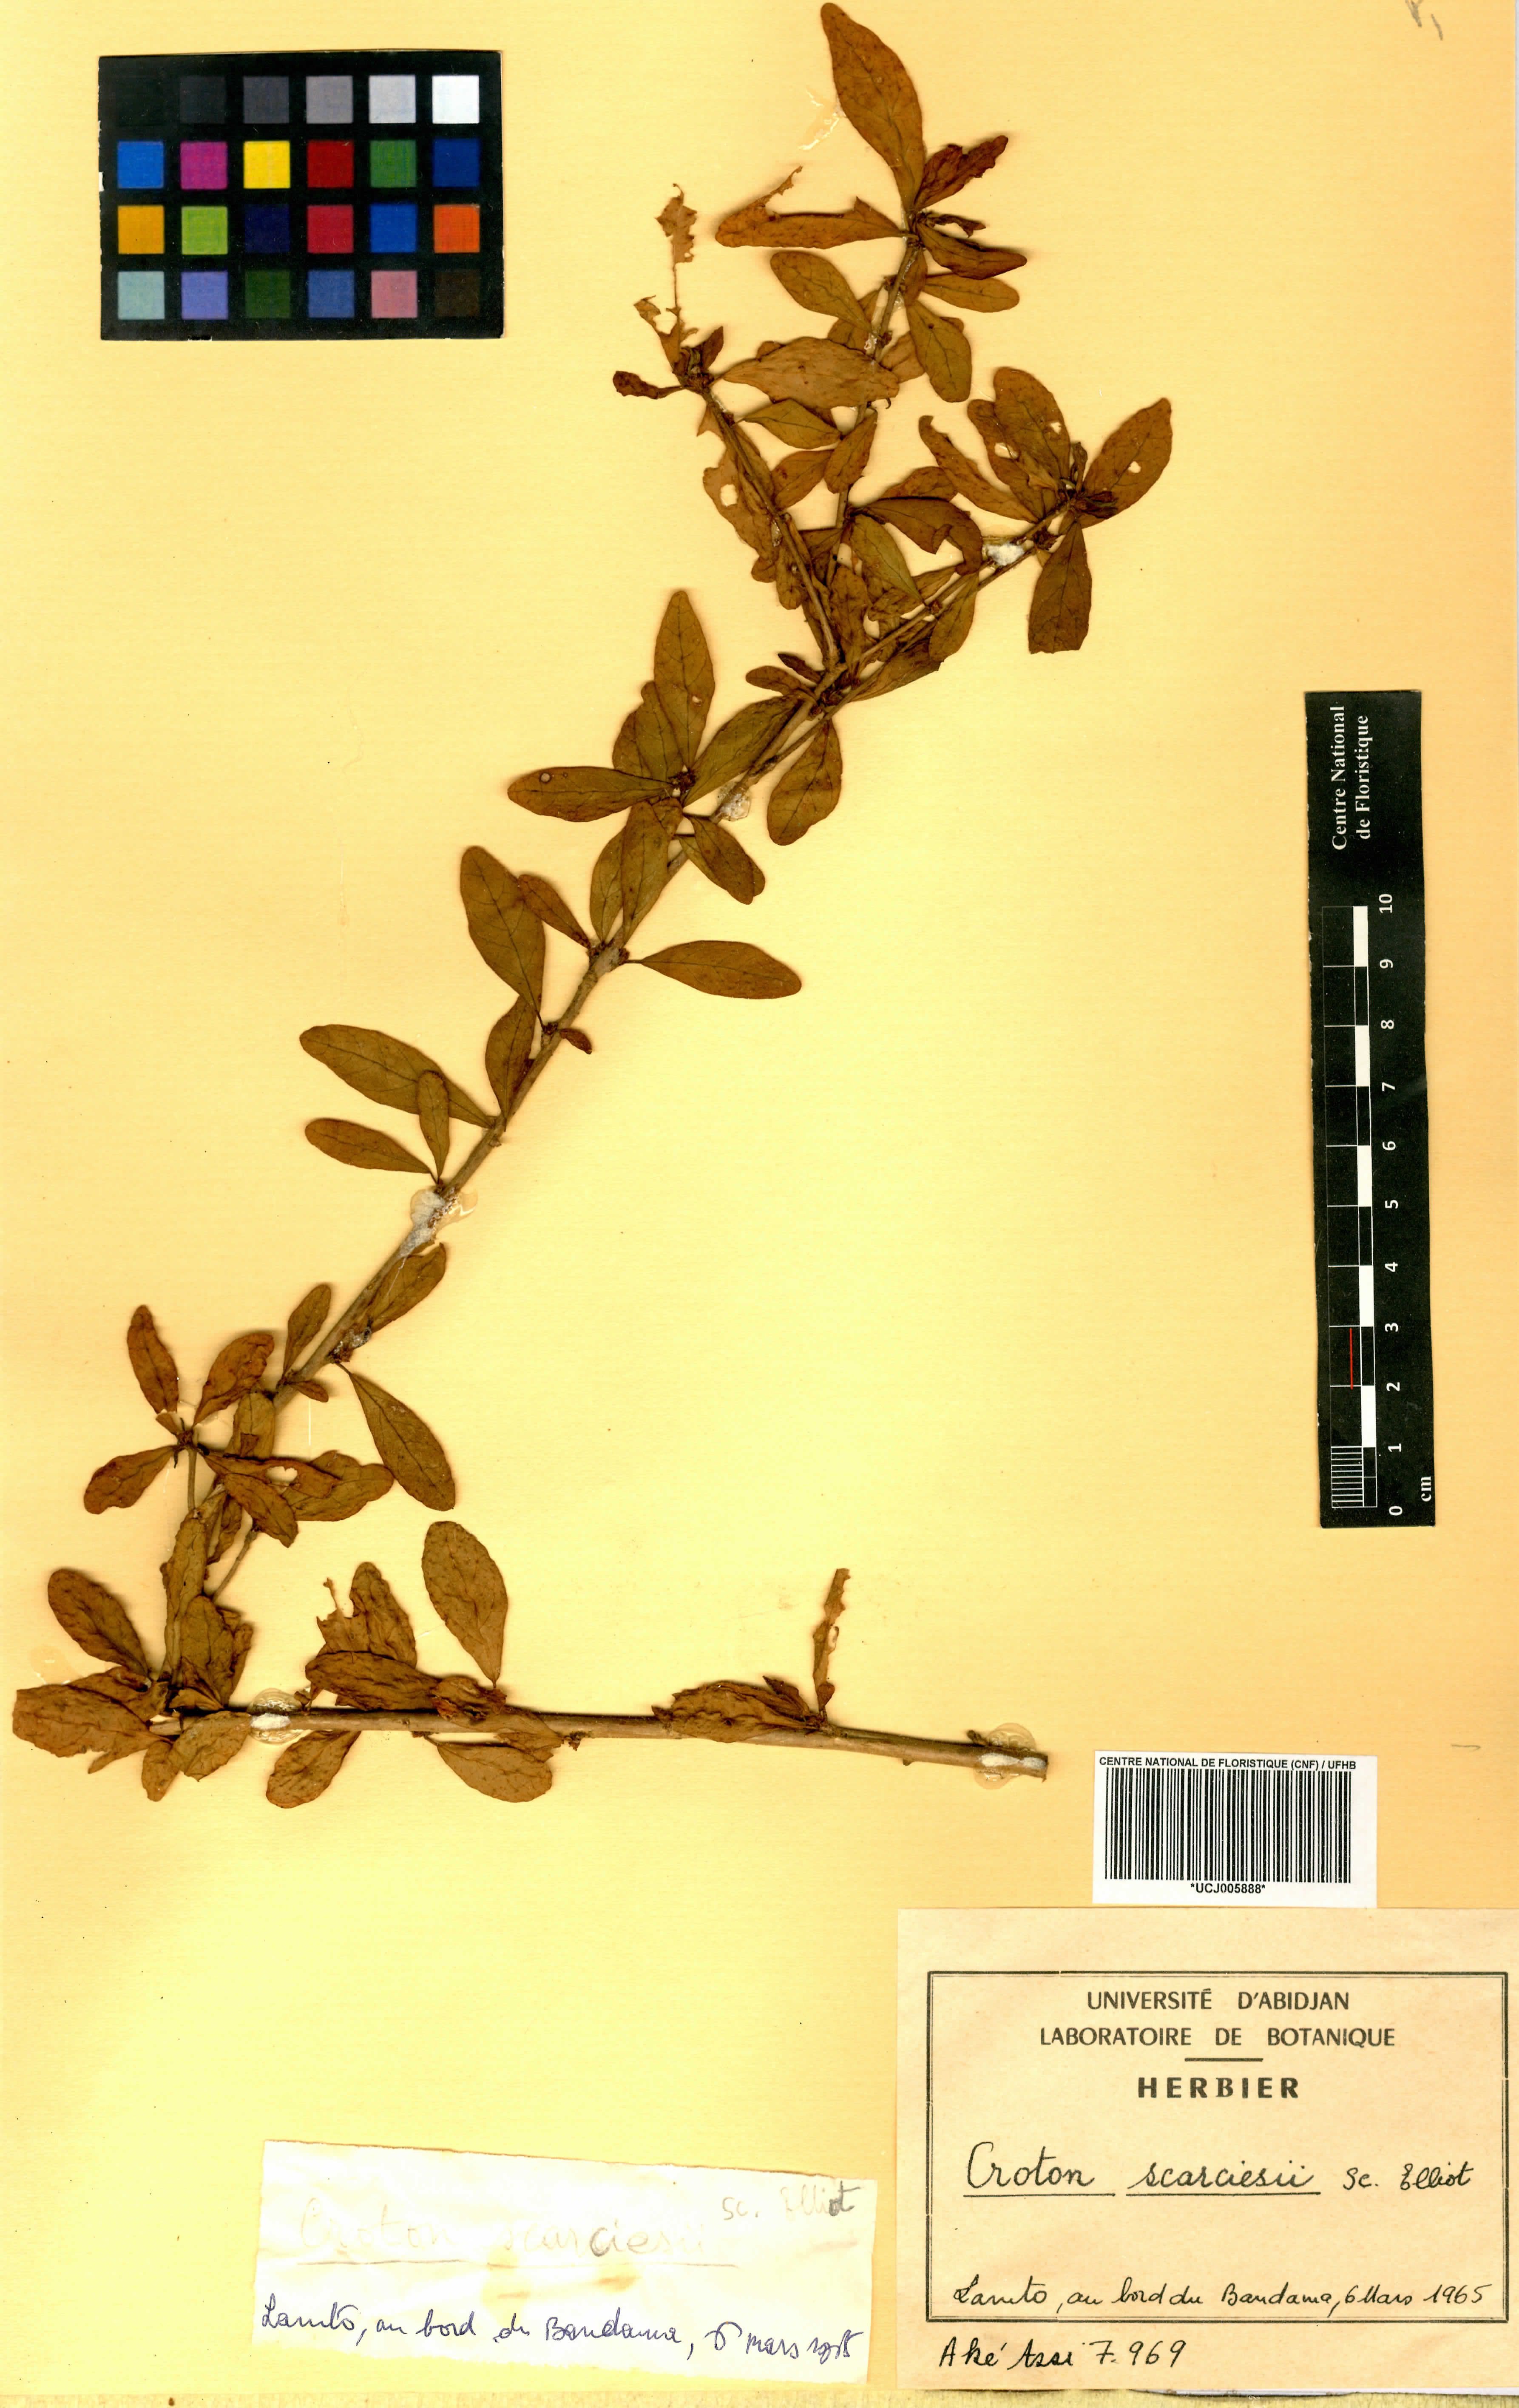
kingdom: Plantae
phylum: Tracheophyta
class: Magnoliopsida
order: Malpighiales
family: Euphorbiaceae
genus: Karima
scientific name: Karima scarciesii
